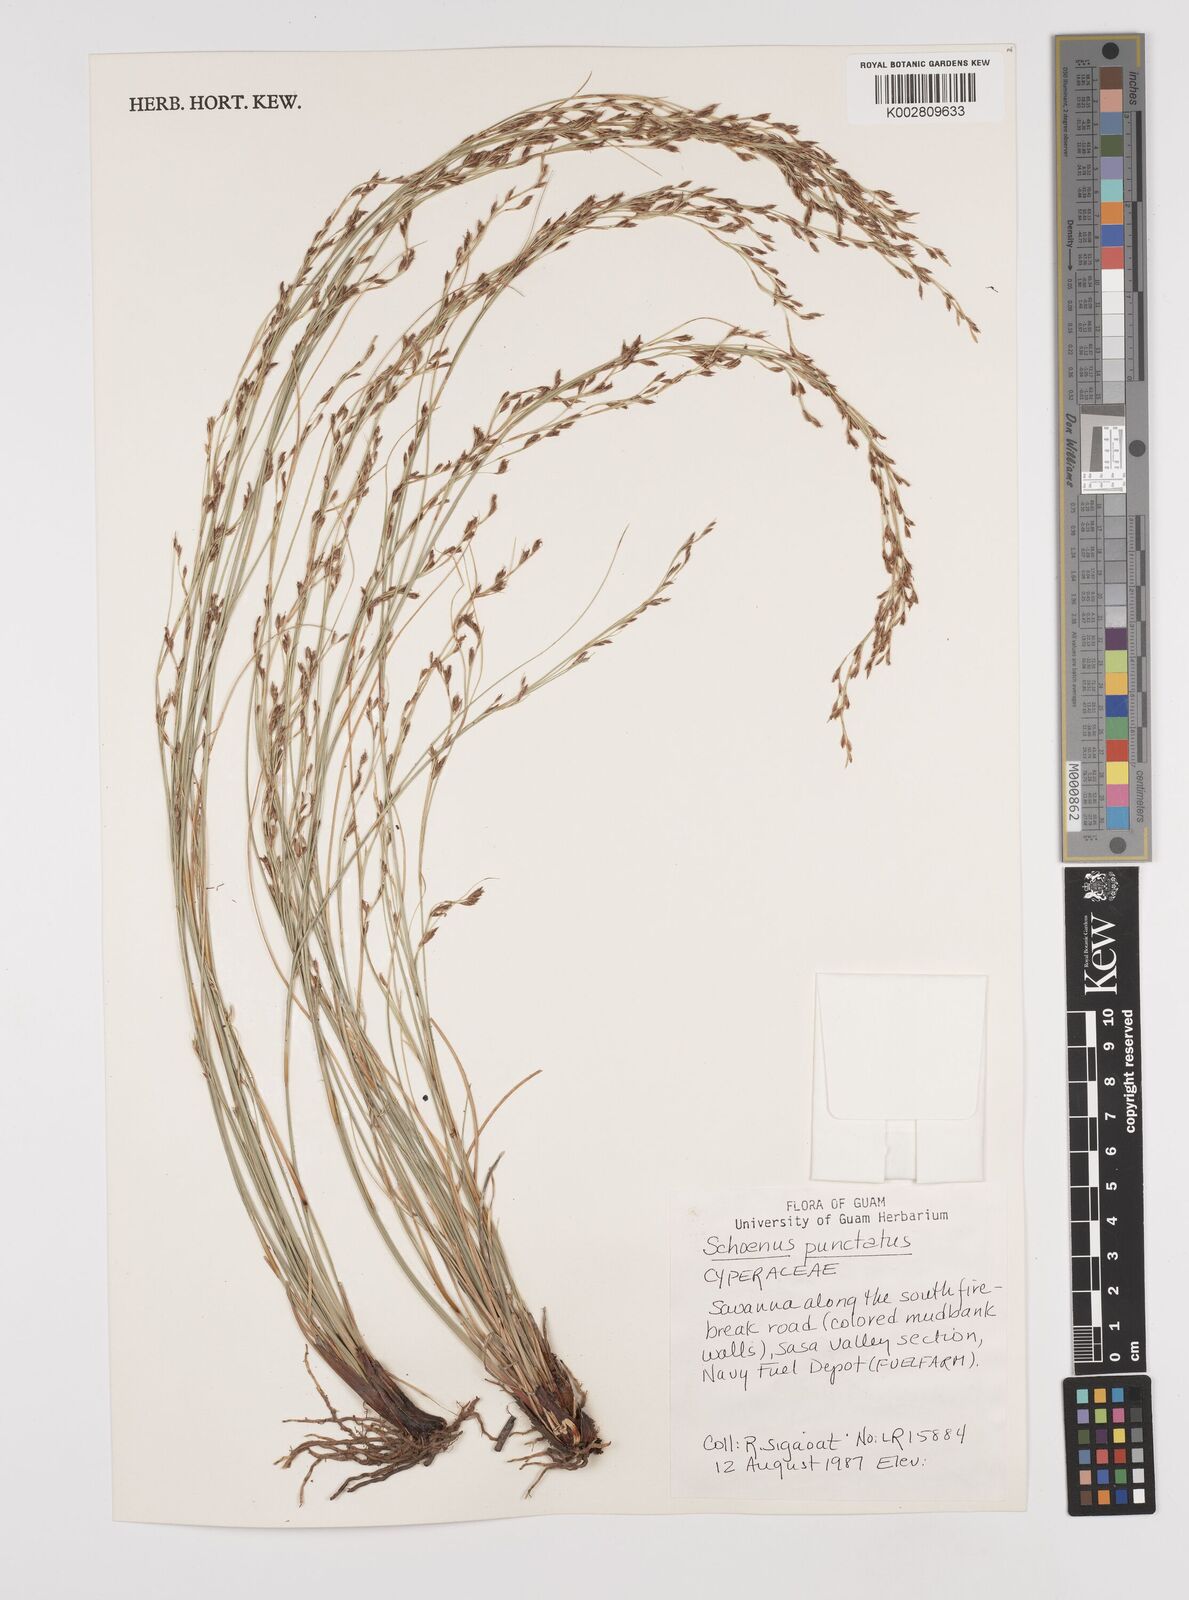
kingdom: Plantae
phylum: Tracheophyta
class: Liliopsida
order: Poales
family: Cyperaceae
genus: Schoenus
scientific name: Schoenus punctatus
